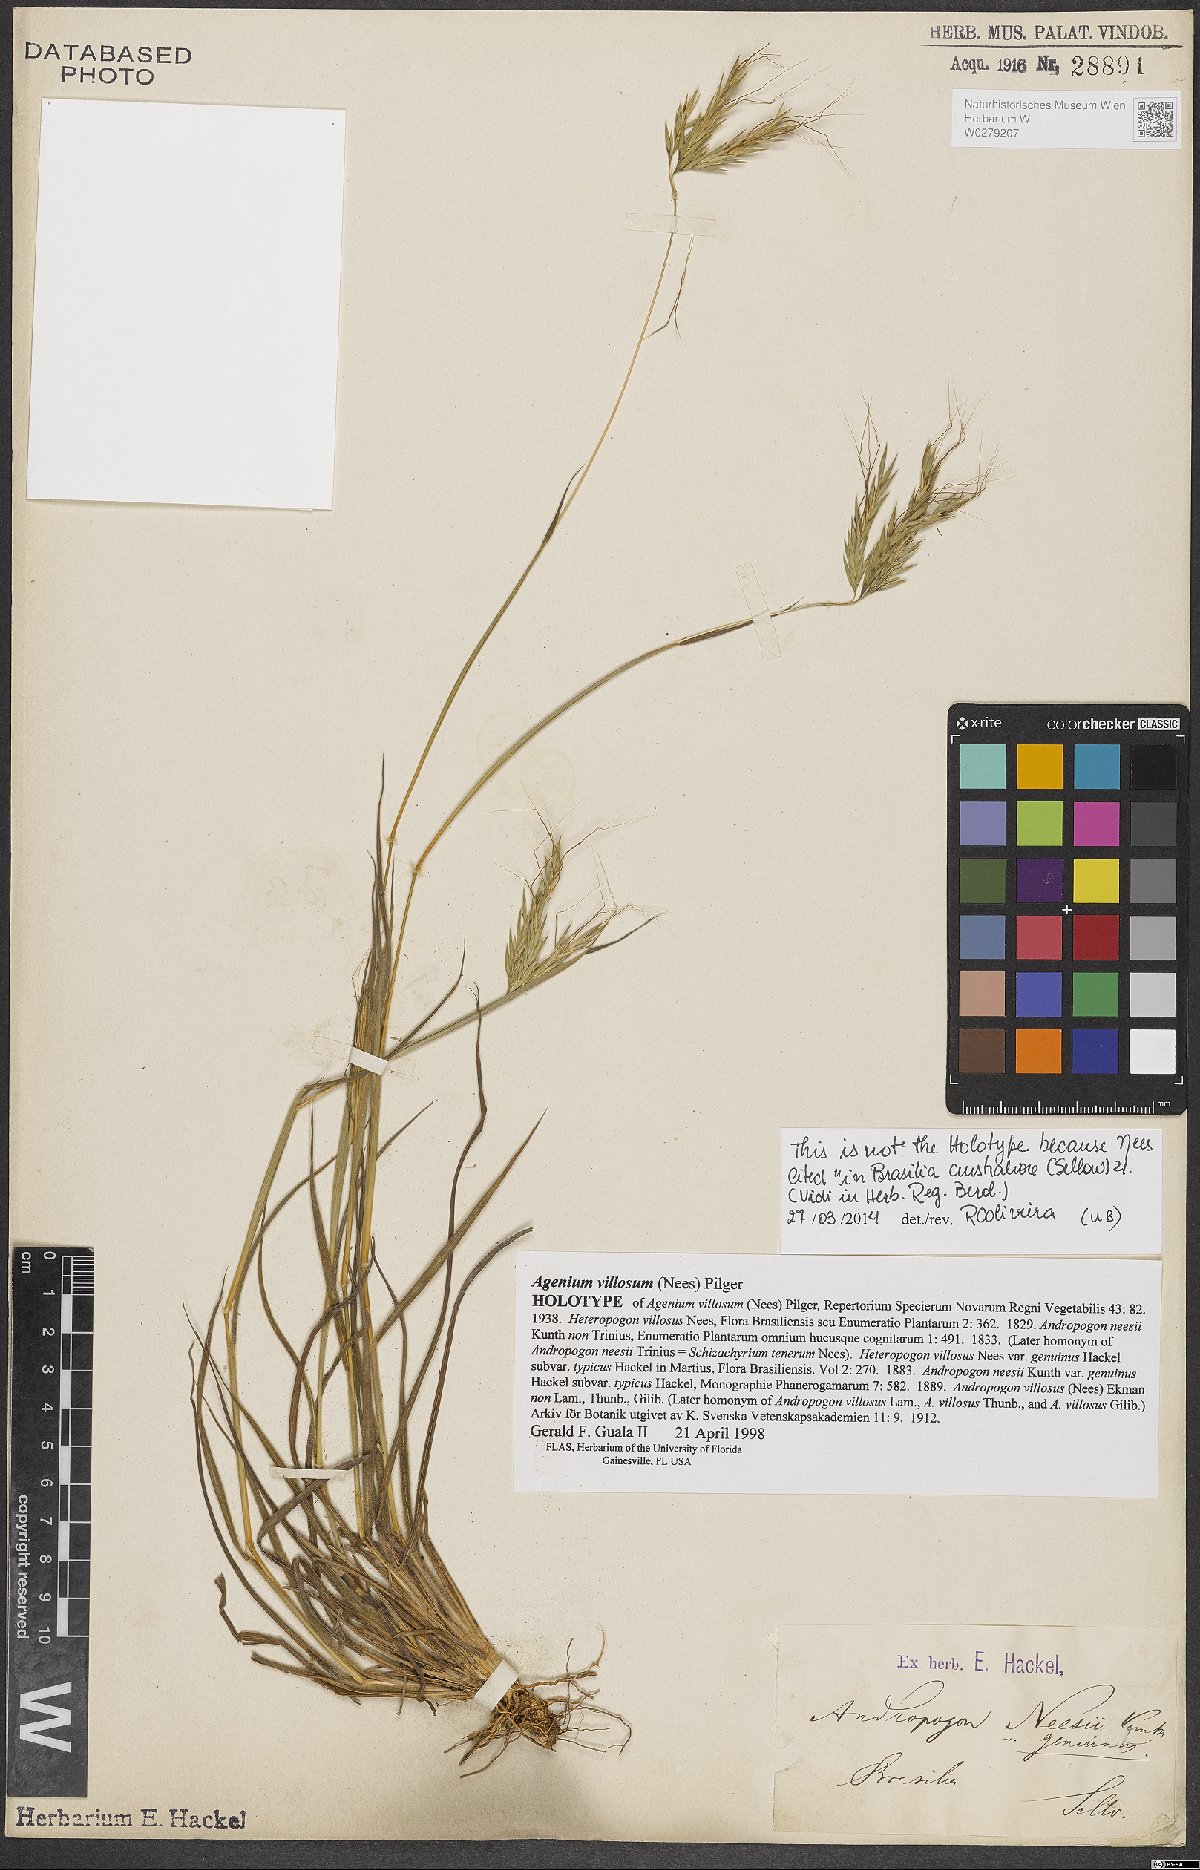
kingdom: Plantae
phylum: Tracheophyta
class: Liliopsida
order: Poales
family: Poaceae
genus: Agenium
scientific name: Agenium villosum
